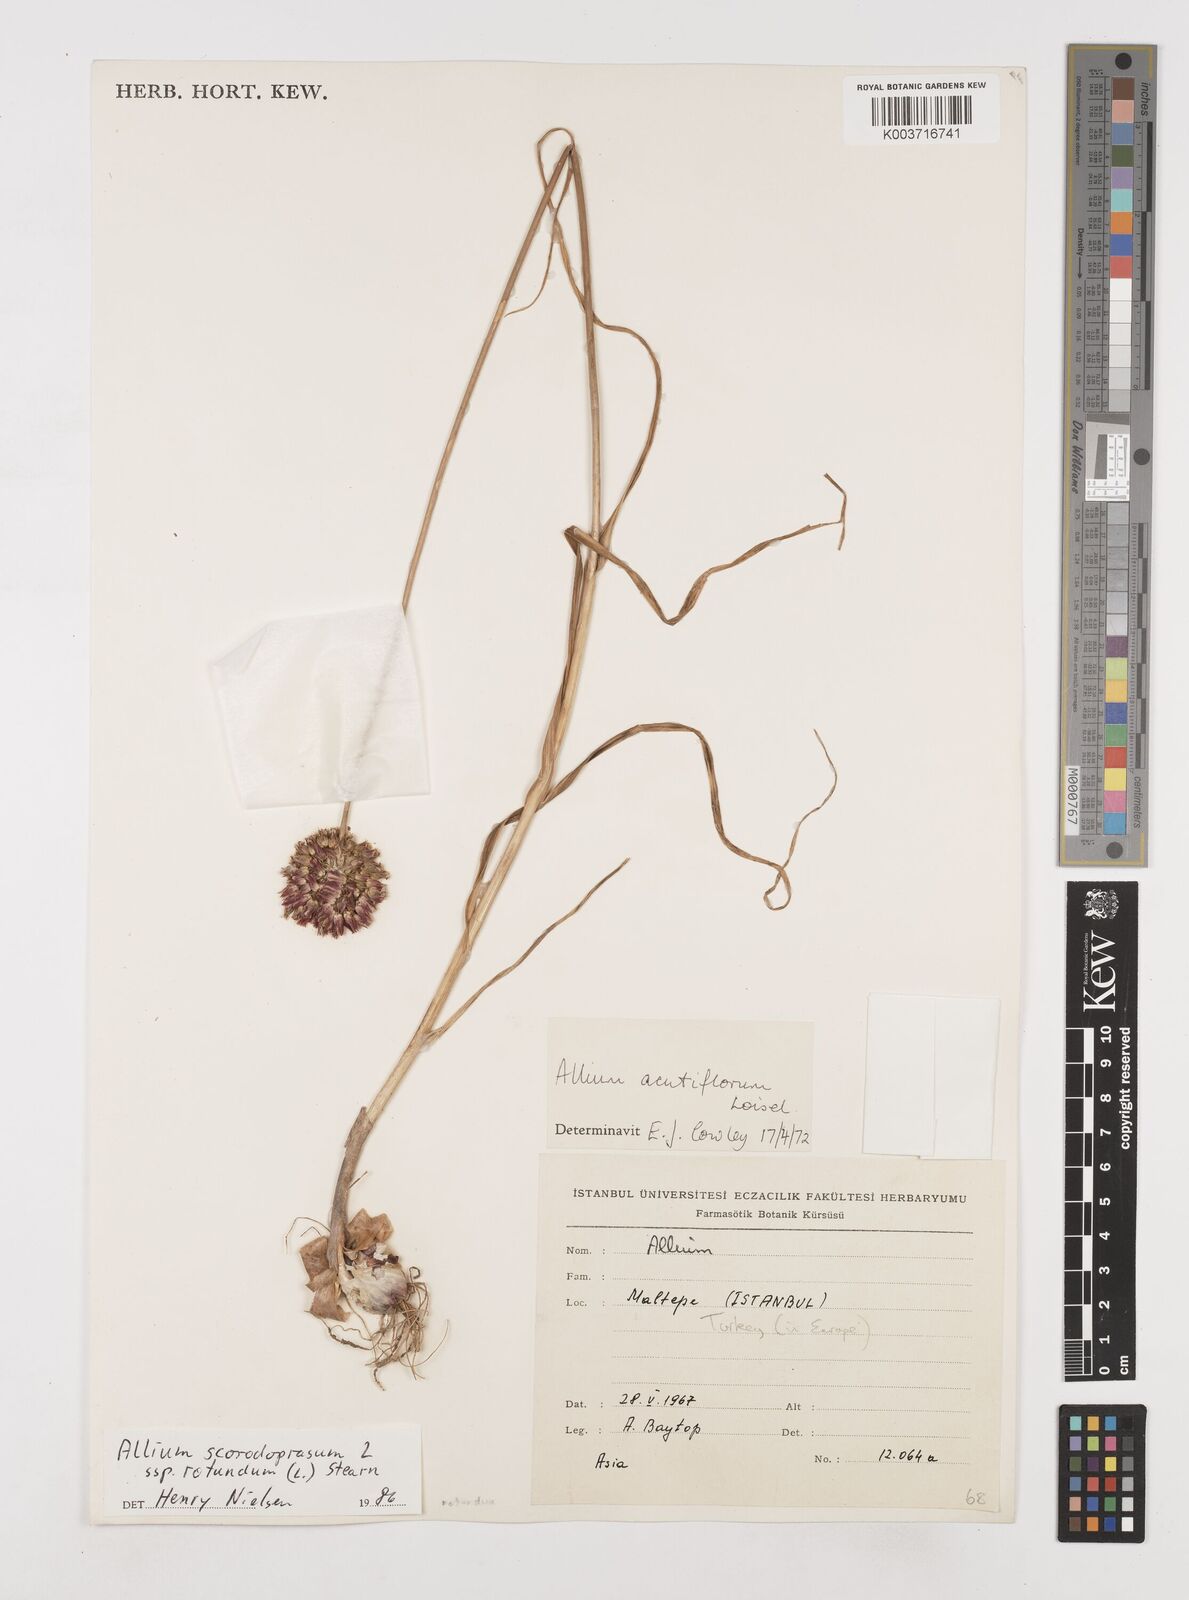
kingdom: Plantae
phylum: Tracheophyta
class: Liliopsida
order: Asparagales
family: Amaryllidaceae
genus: Allium
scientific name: Allium rotundum
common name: Sand leek
